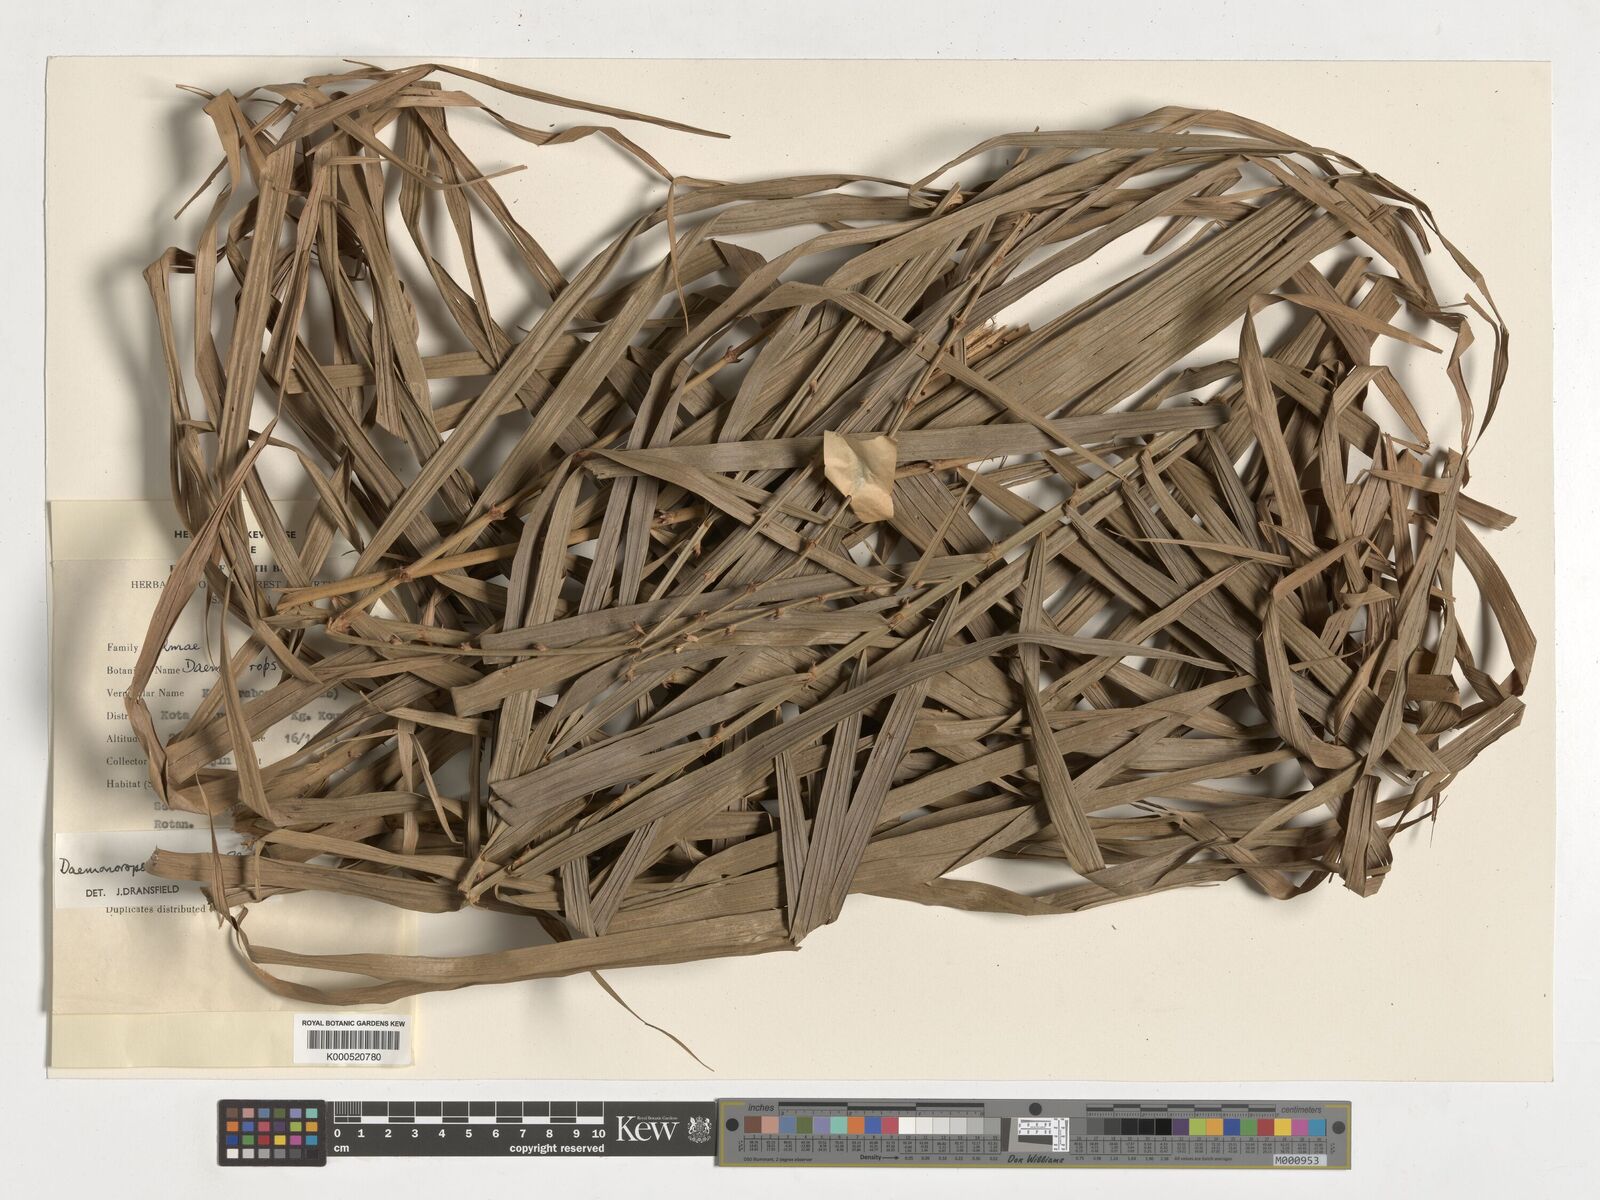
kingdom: Plantae
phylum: Tracheophyta
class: Liliopsida
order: Arecales
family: Arecaceae
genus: Calamus
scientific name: Calamus hirsutus
